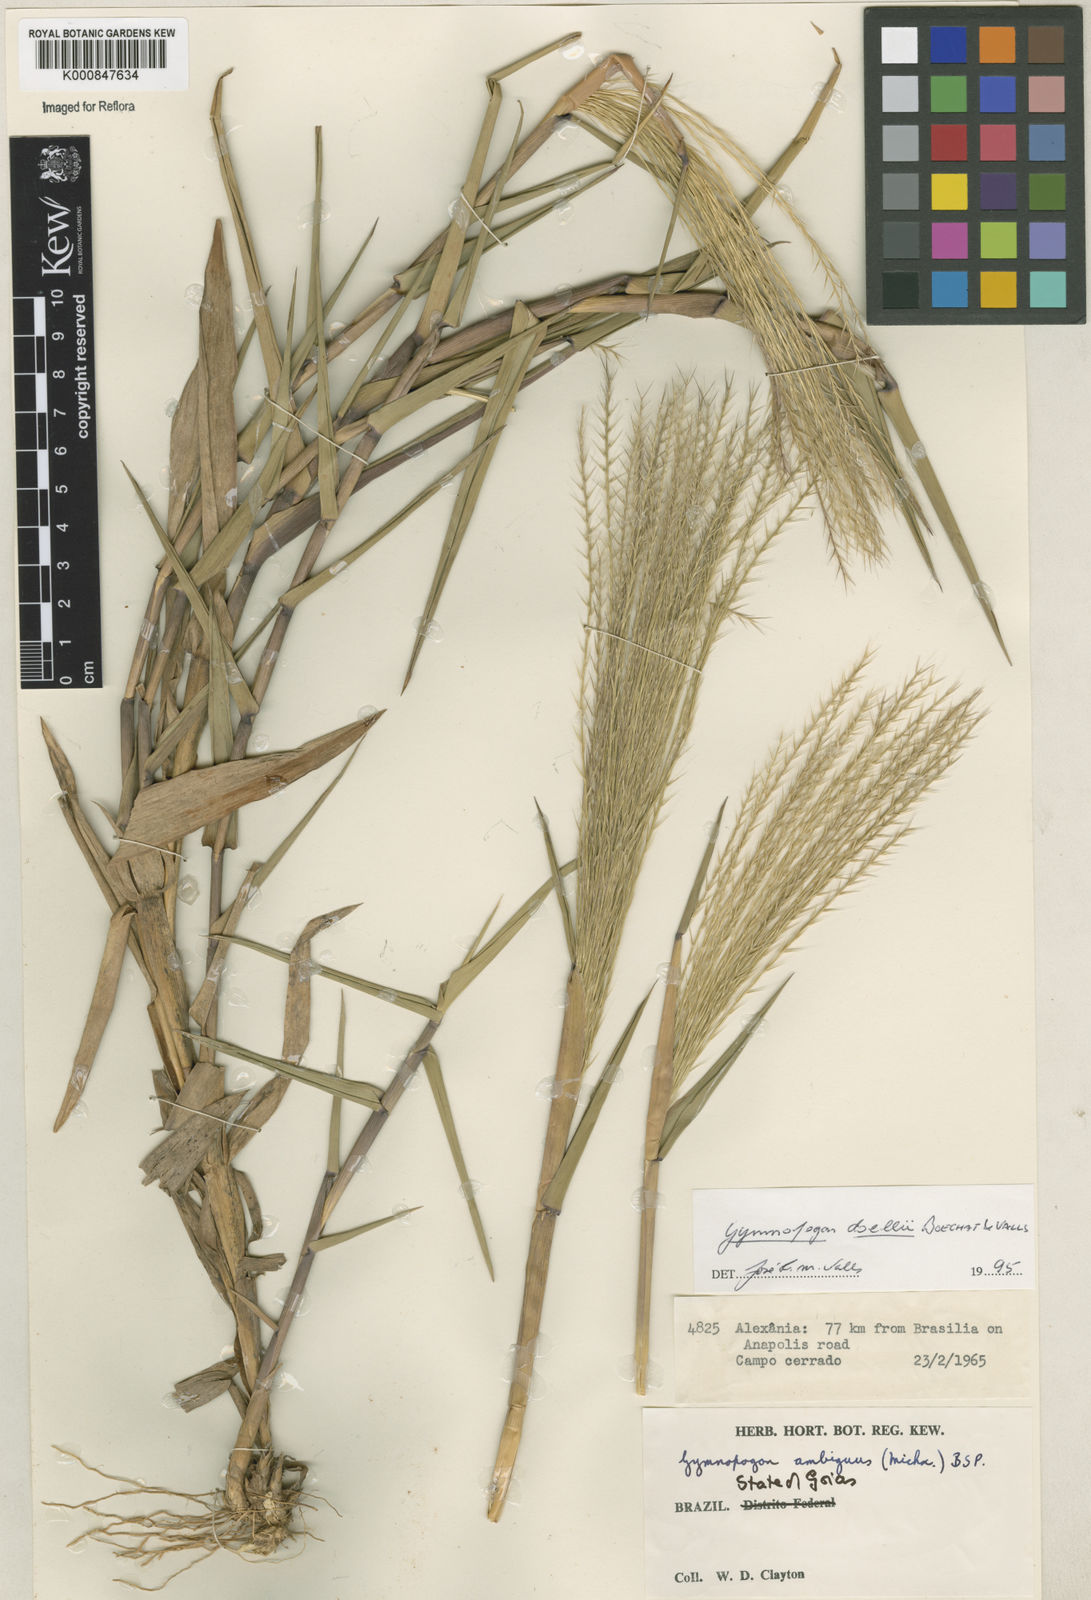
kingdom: Plantae
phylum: Tracheophyta
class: Liliopsida
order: Poales
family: Poaceae
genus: Gymnopogon
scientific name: Gymnopogon doellii
